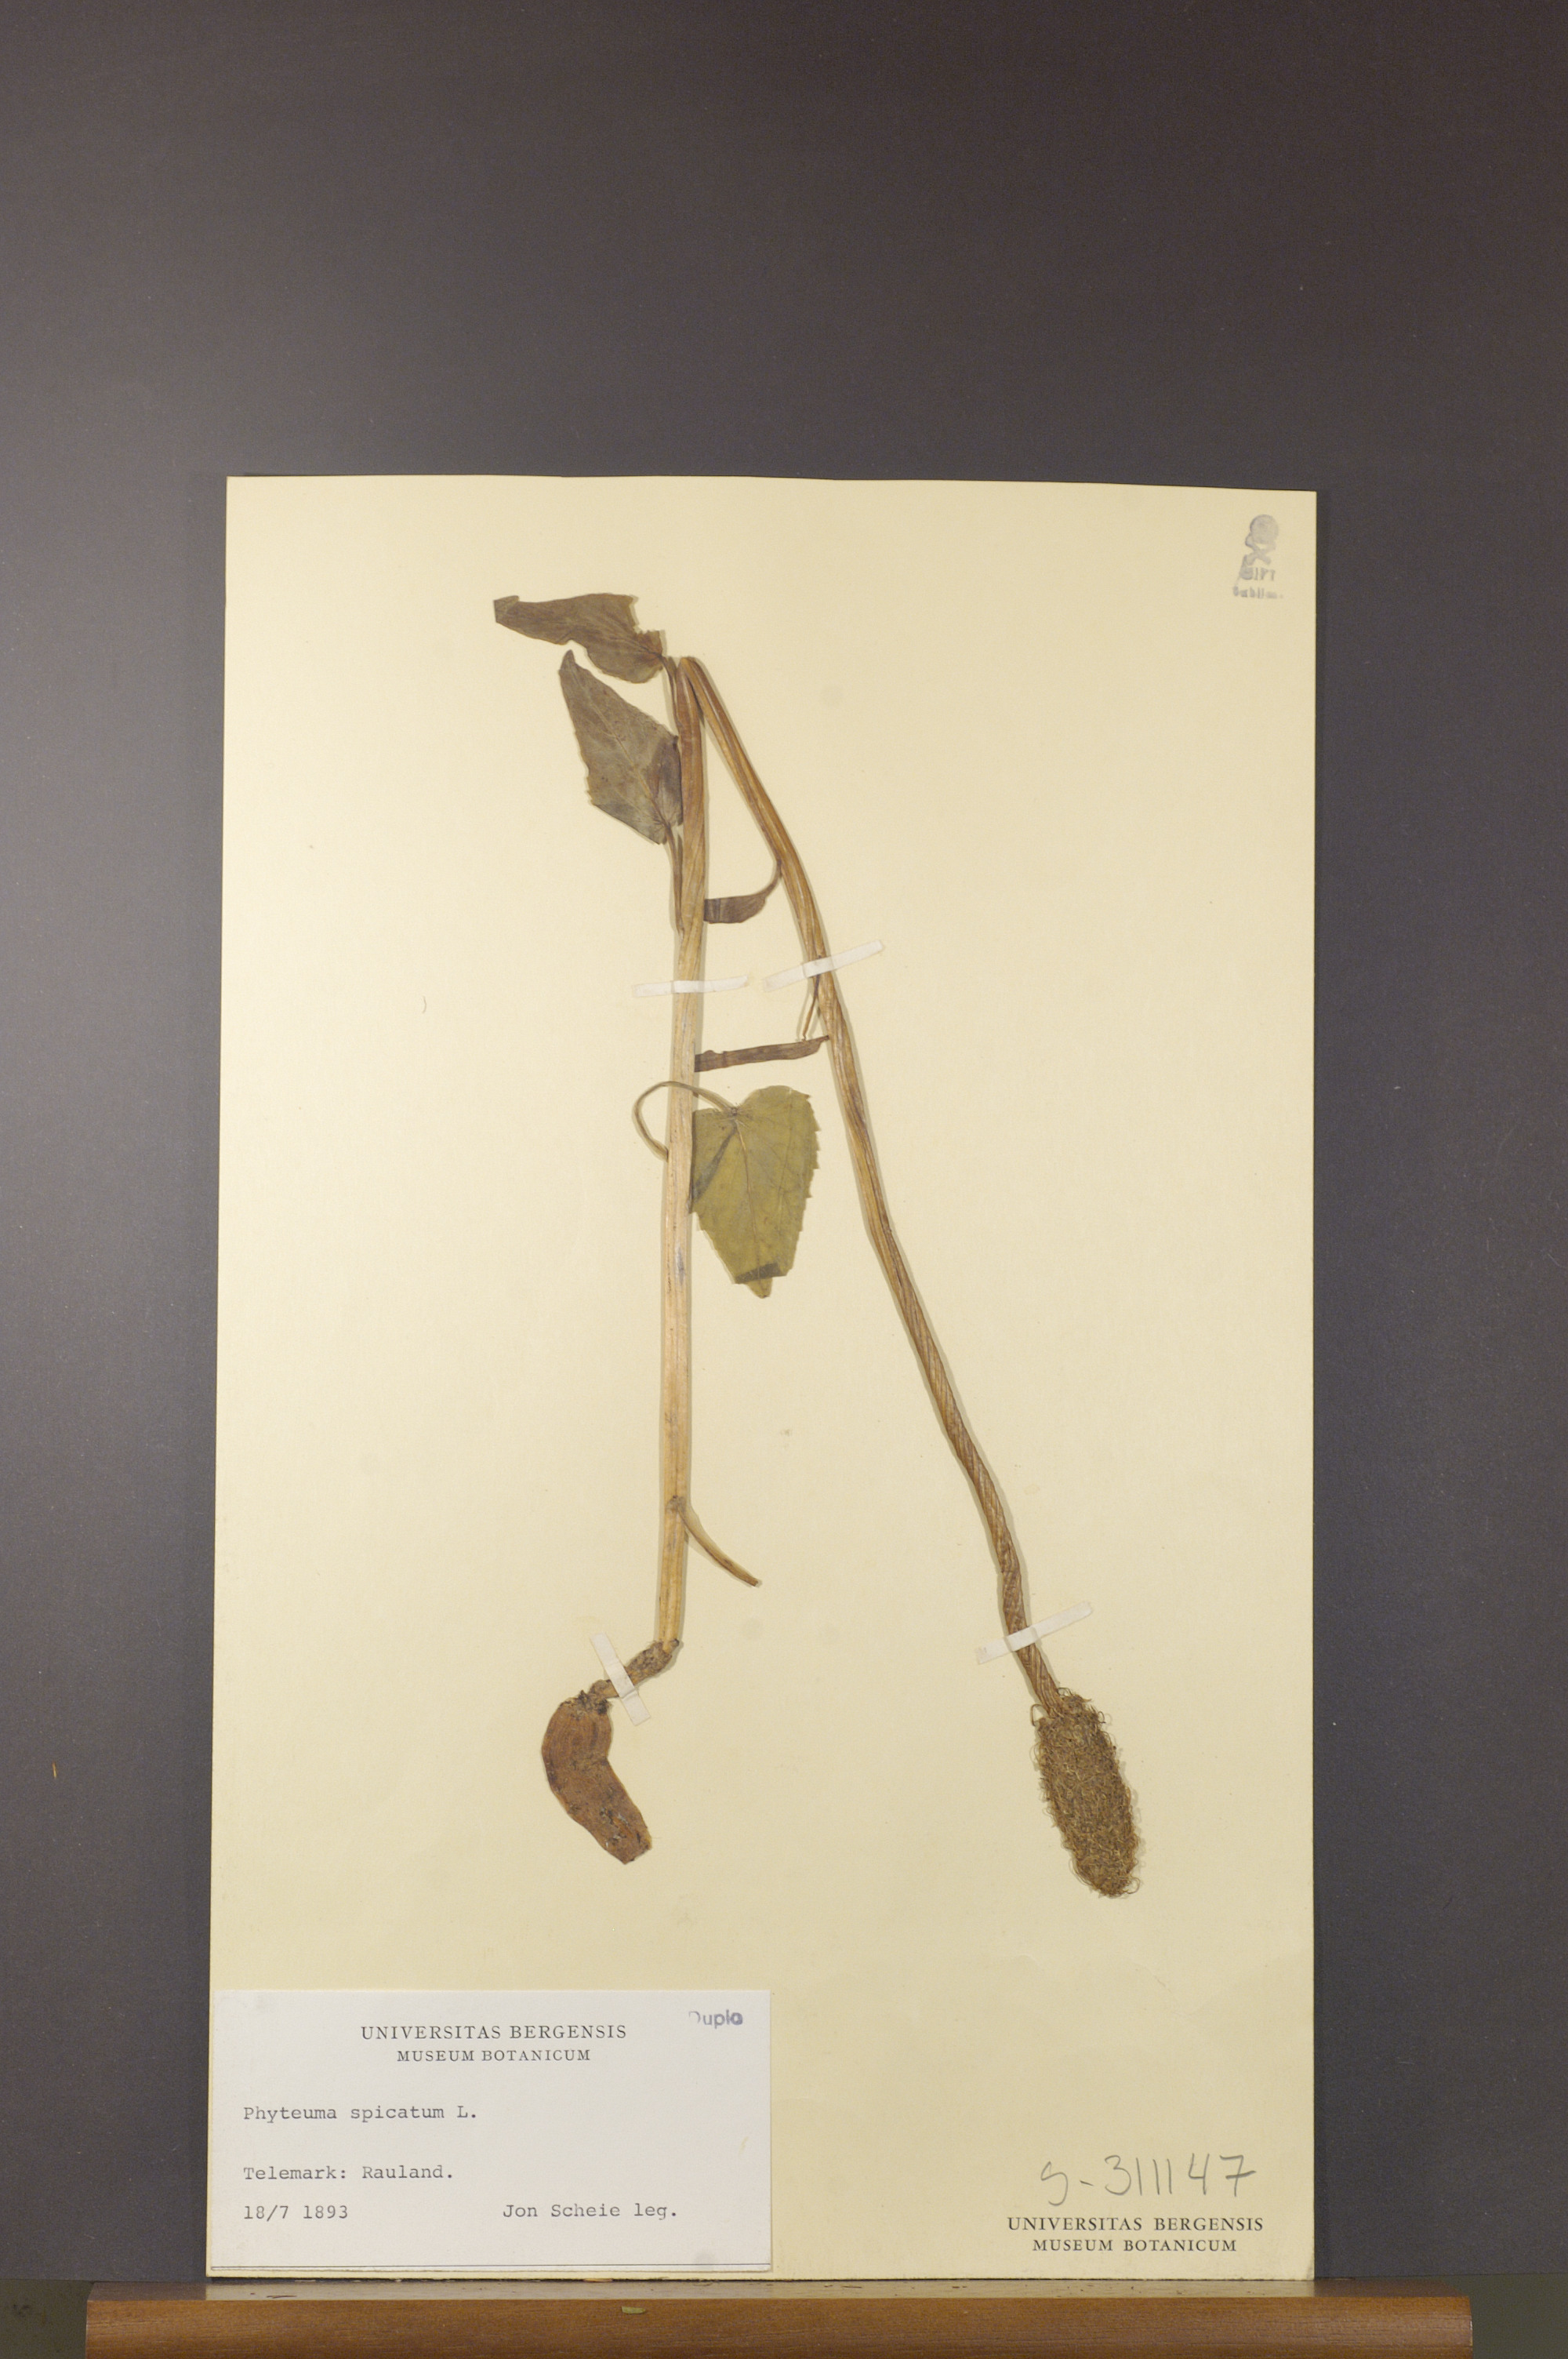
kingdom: Plantae
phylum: Tracheophyta
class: Magnoliopsida
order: Asterales
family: Campanulaceae
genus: Phyteuma
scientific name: Phyteuma spicatum
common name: Spiked rampion
